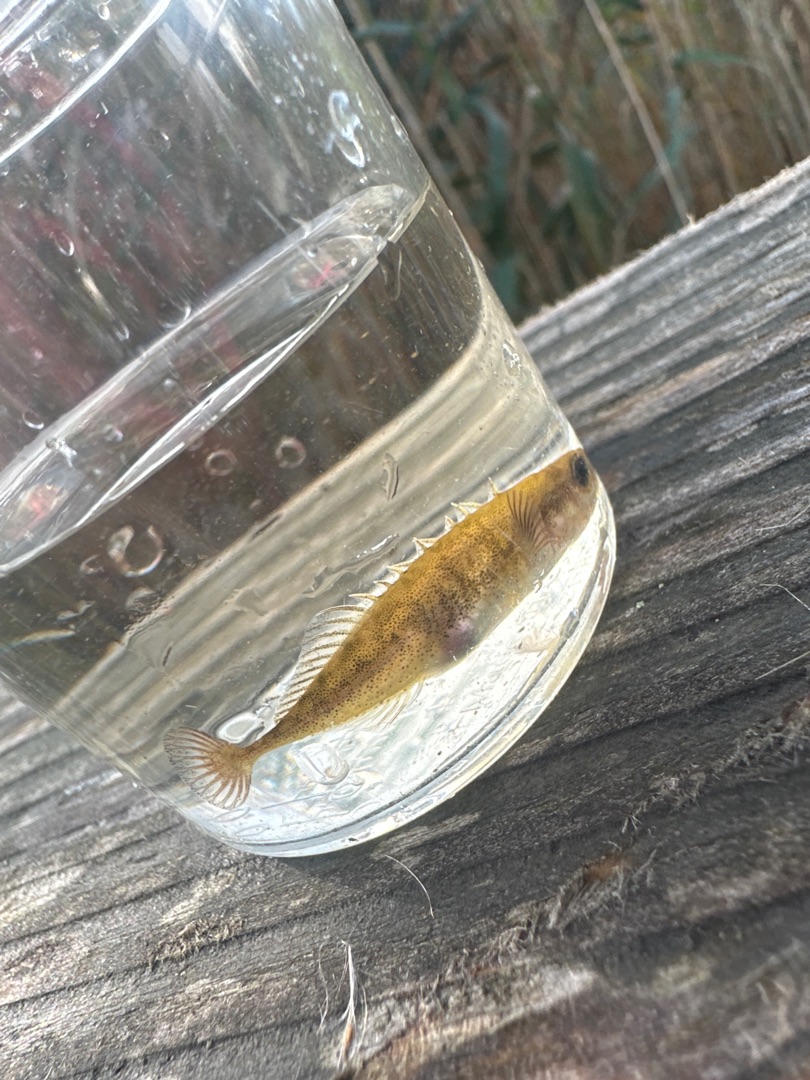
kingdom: Animalia
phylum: Chordata
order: Gasterosteiformes
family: Gasterosteidae
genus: Pungitius
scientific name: Pungitius pungitius
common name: Nipigget hundestejle
